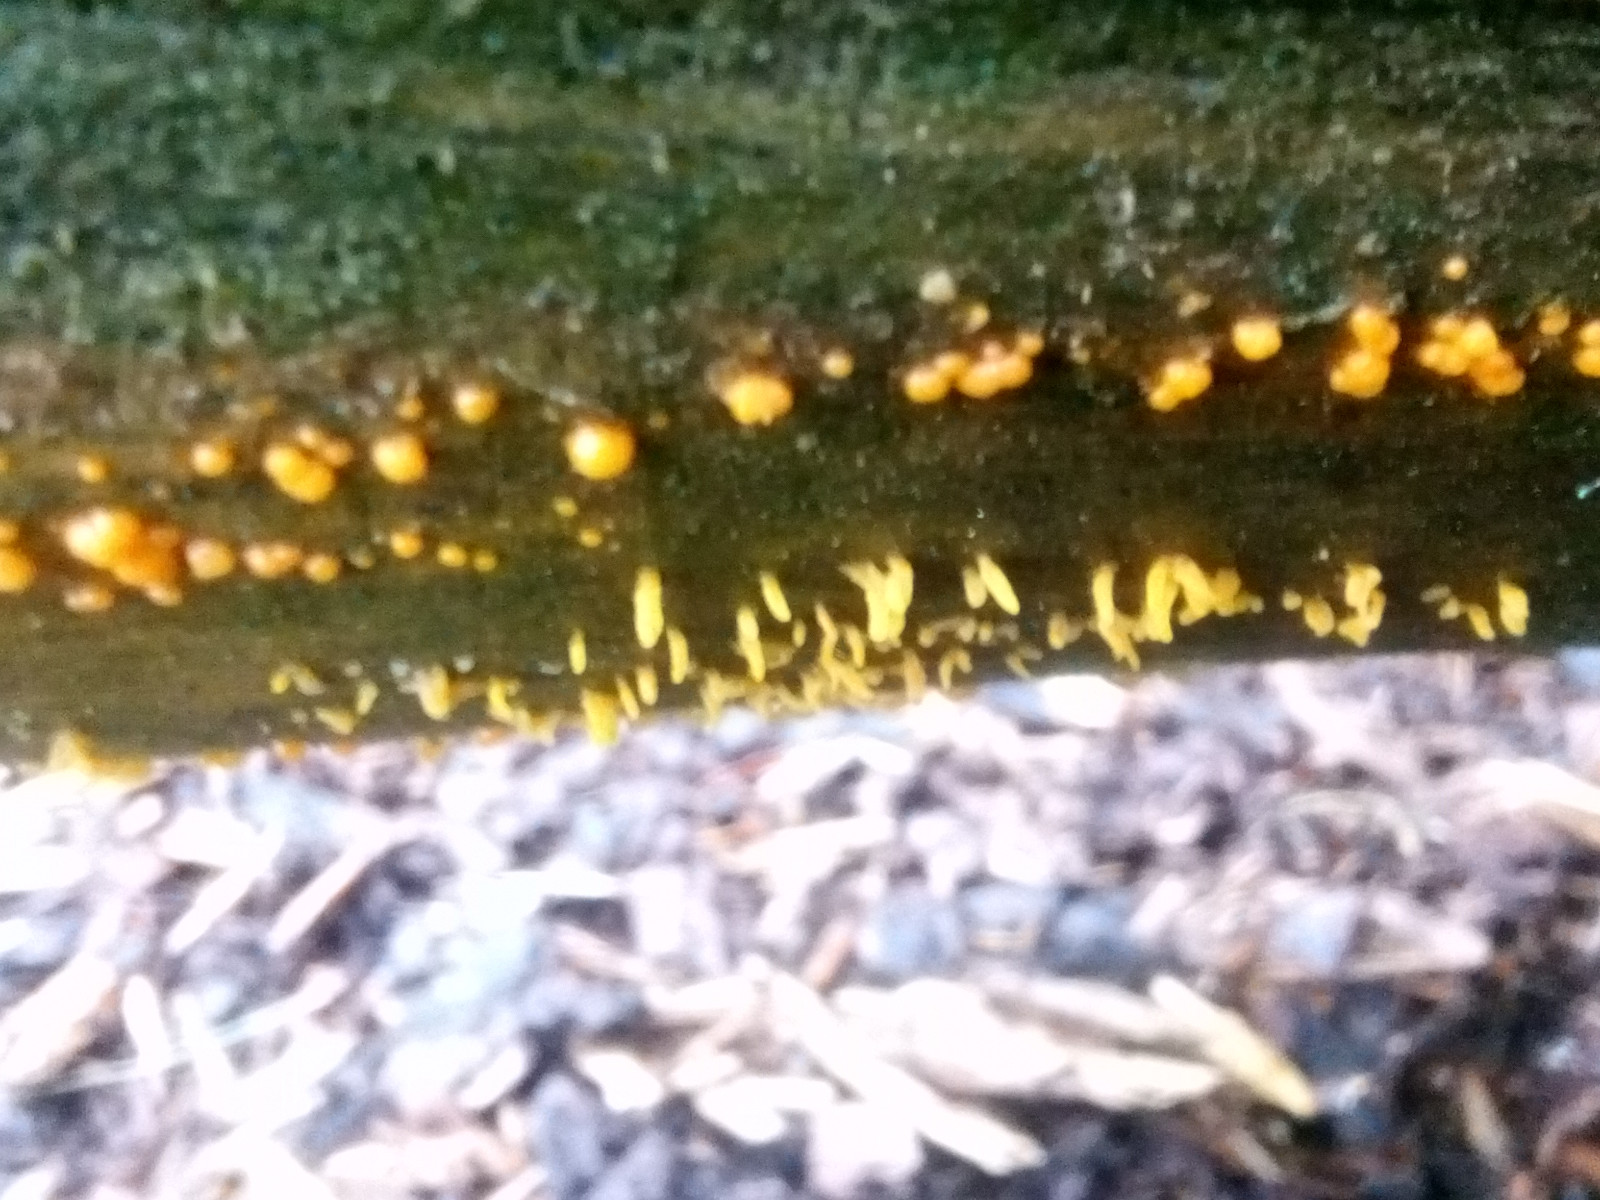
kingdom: Fungi
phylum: Basidiomycota
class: Dacrymycetes
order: Dacrymycetales
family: Dacrymycetaceae
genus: Calocera
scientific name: Calocera furcata
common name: fyrre-guldgaffel
